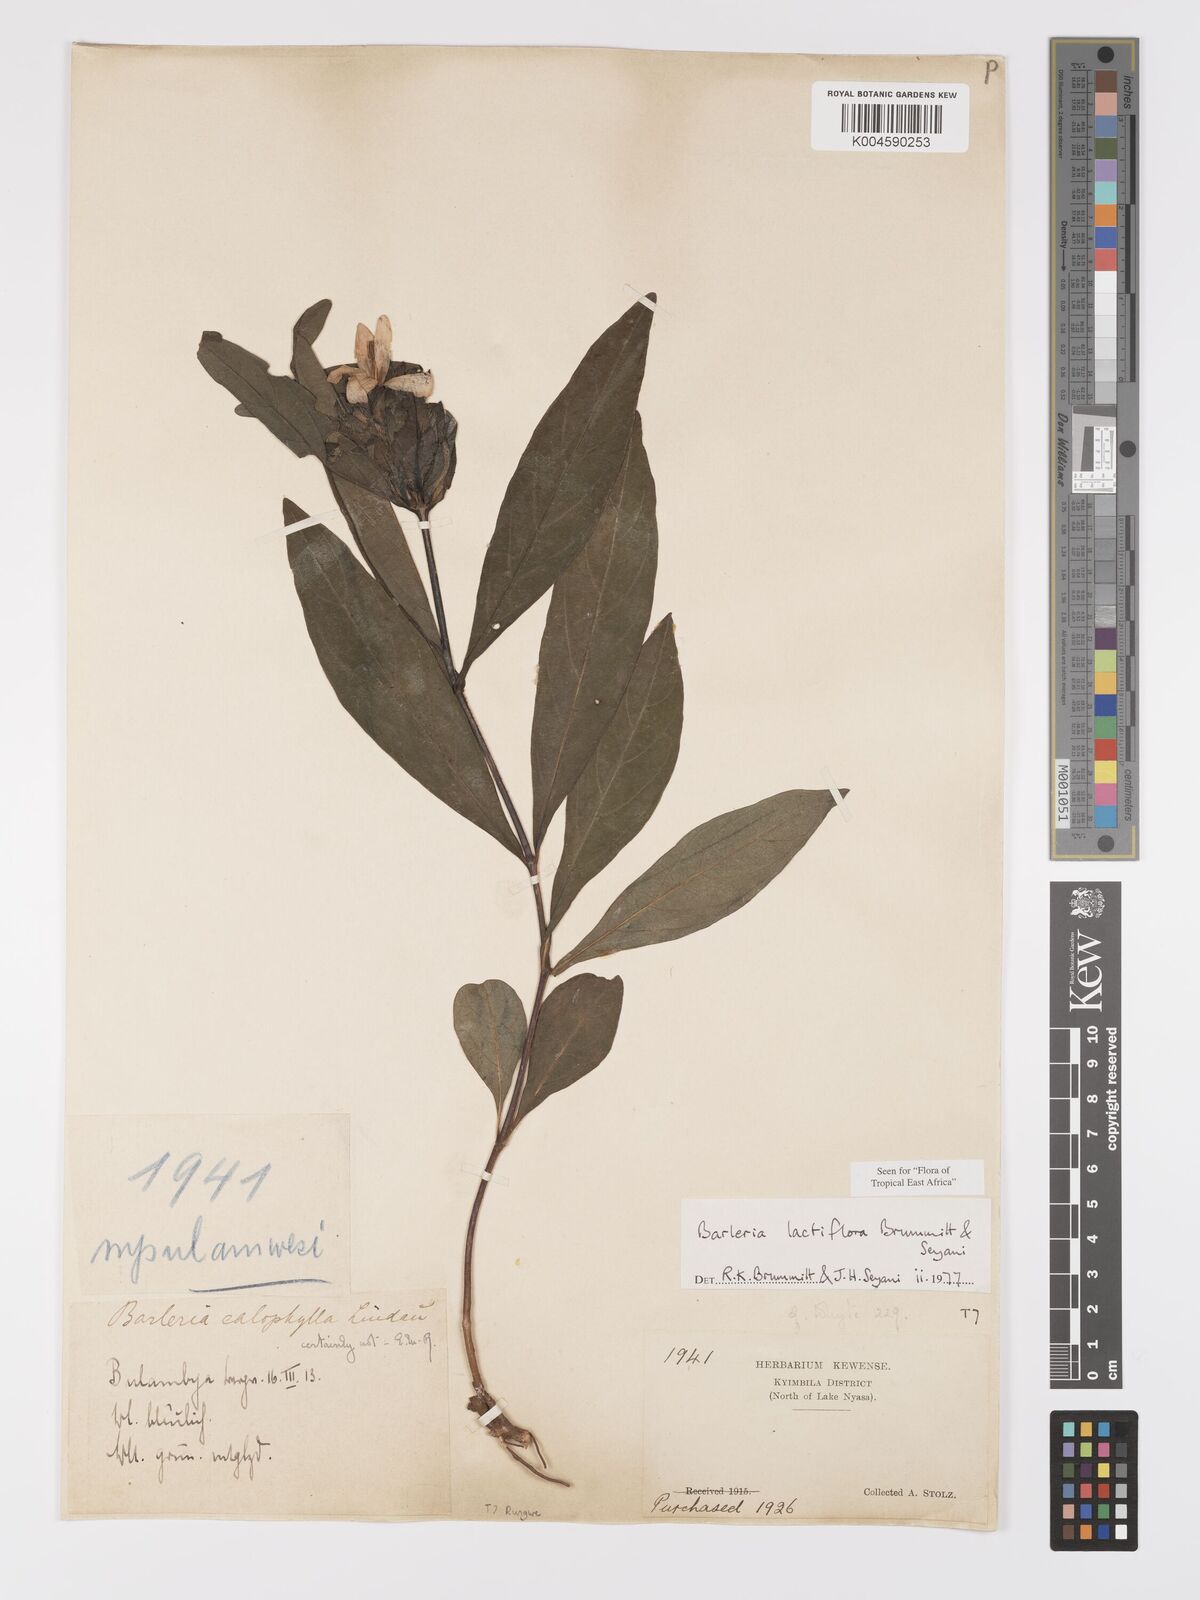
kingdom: Plantae
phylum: Tracheophyta
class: Magnoliopsida
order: Lamiales
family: Acanthaceae
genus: Barleria
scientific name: Barleria lactiflora
